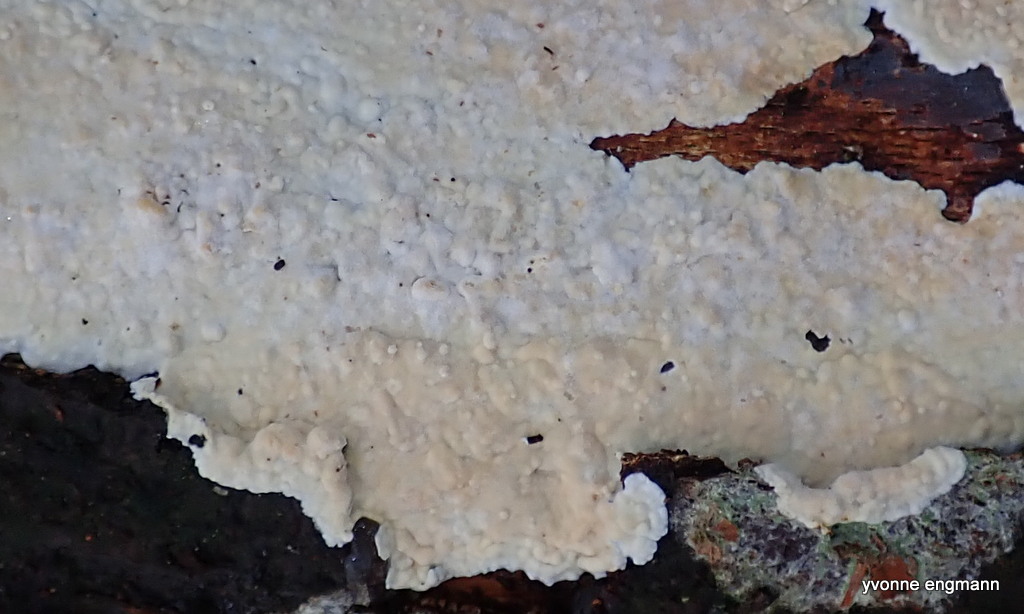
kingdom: Fungi
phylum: Basidiomycota
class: Agaricomycetes
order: Agaricales
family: Physalacriaceae
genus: Cylindrobasidium
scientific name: Cylindrobasidium evolvens
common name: sprækkehinde
